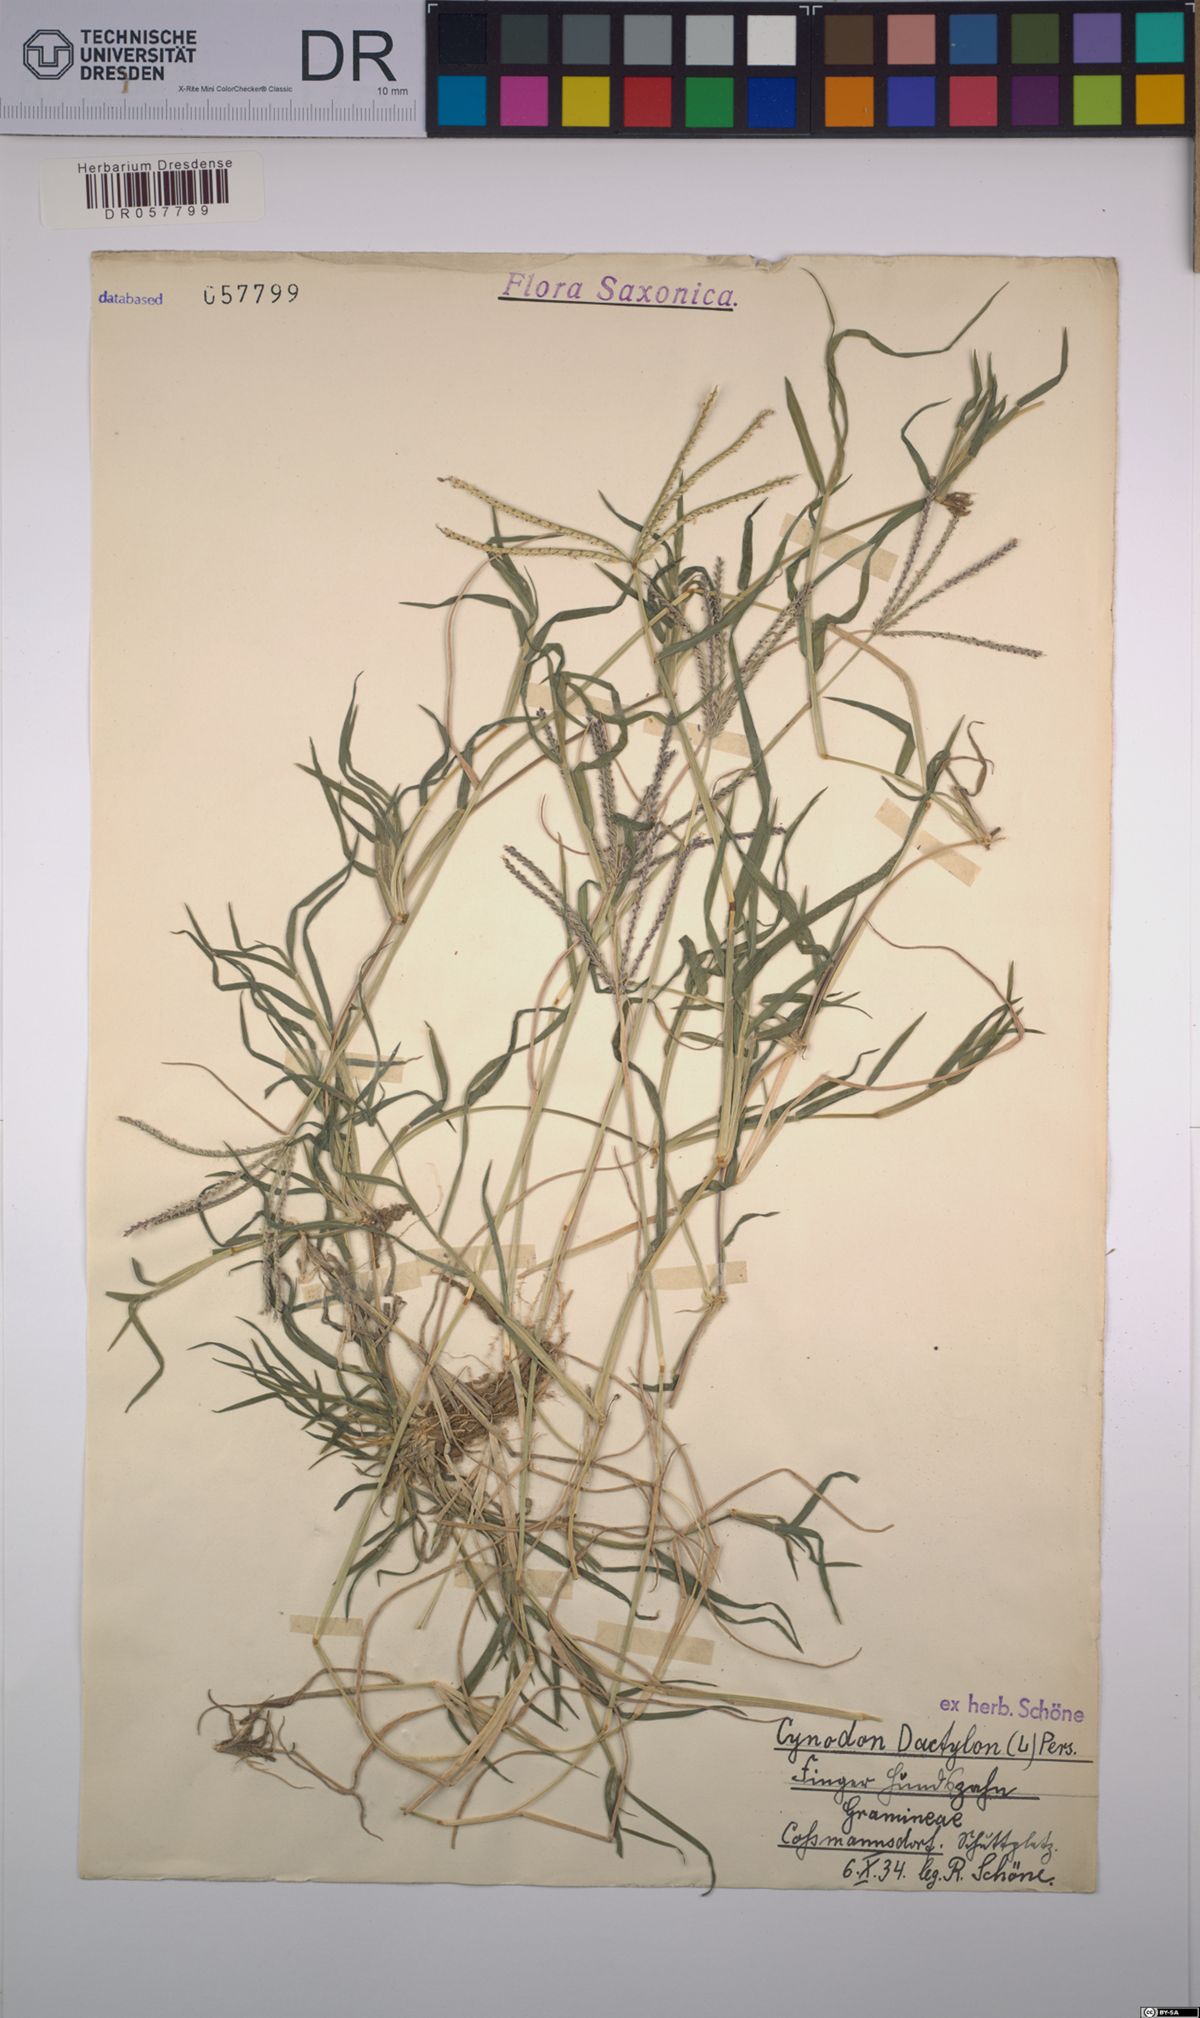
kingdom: Plantae
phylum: Tracheophyta
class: Liliopsida
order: Poales
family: Poaceae
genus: Cynodon
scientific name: Cynodon dactylon
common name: Bermuda grass
